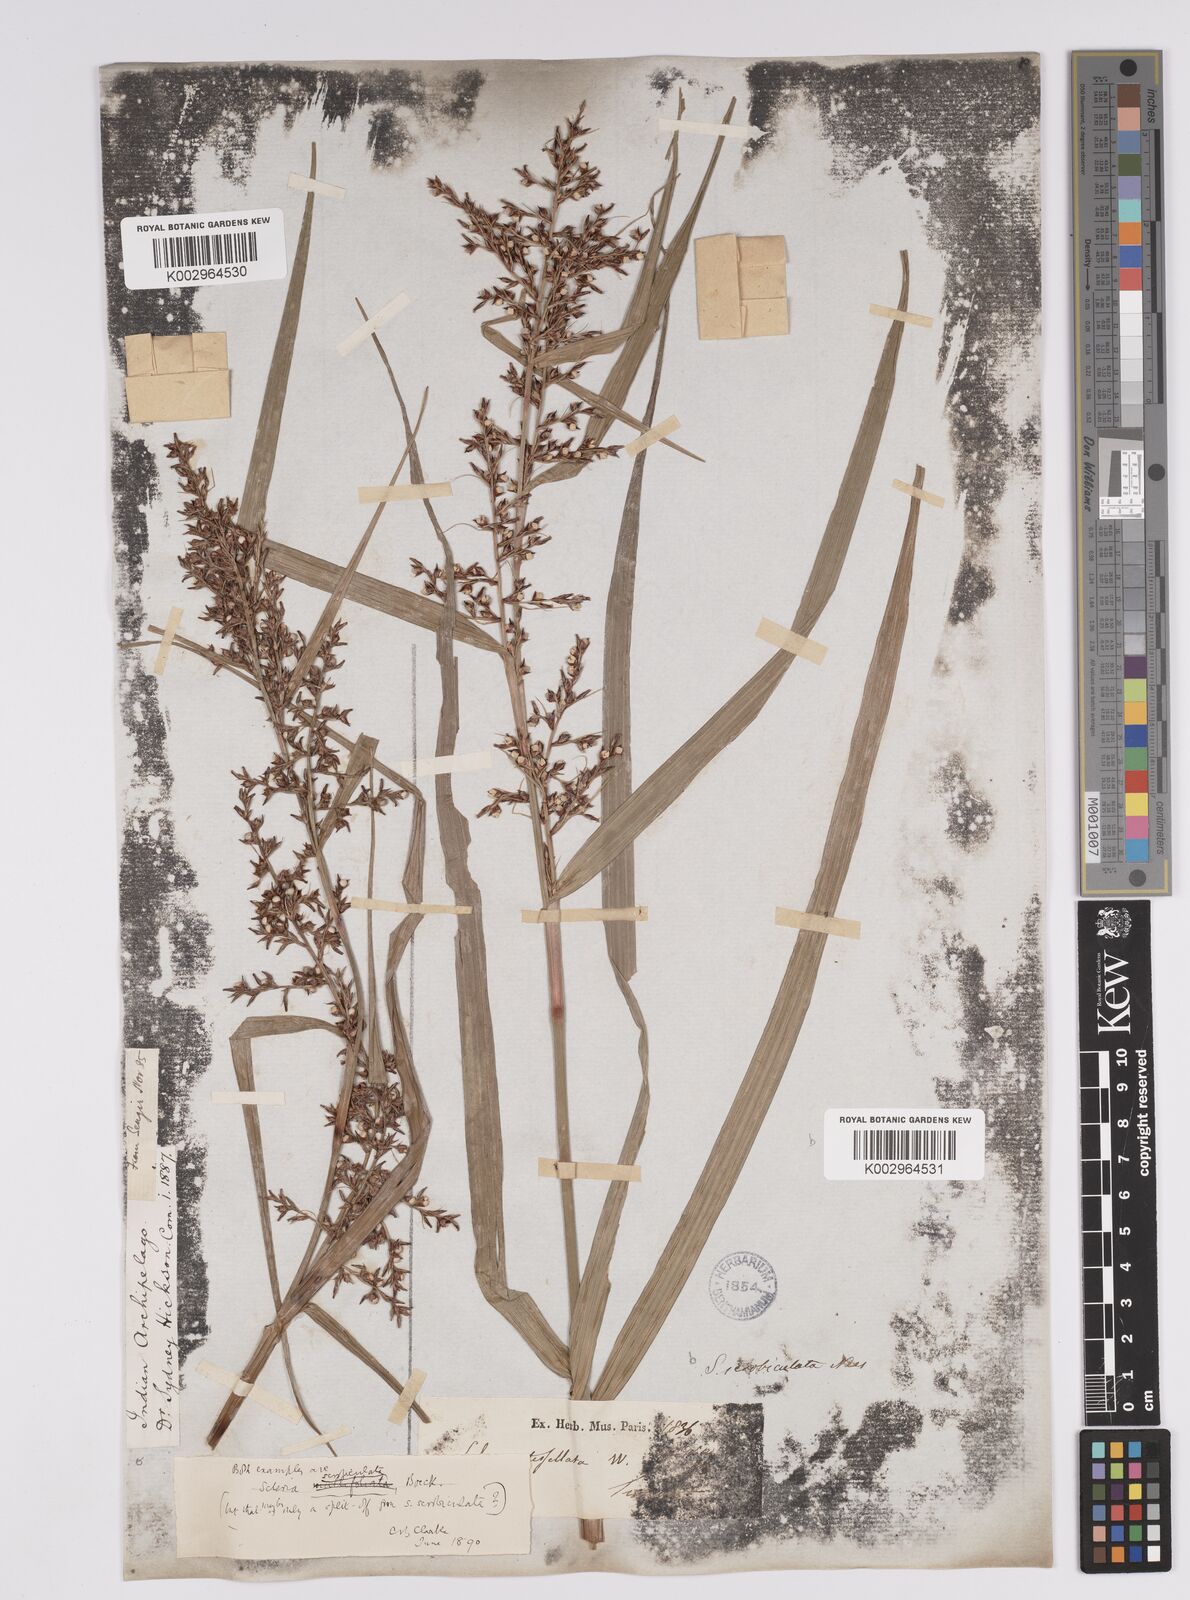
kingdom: Plantae
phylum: Tracheophyta
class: Liliopsida
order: Poales
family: Cyperaceae
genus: Scleria
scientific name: Scleria scrobiculata
